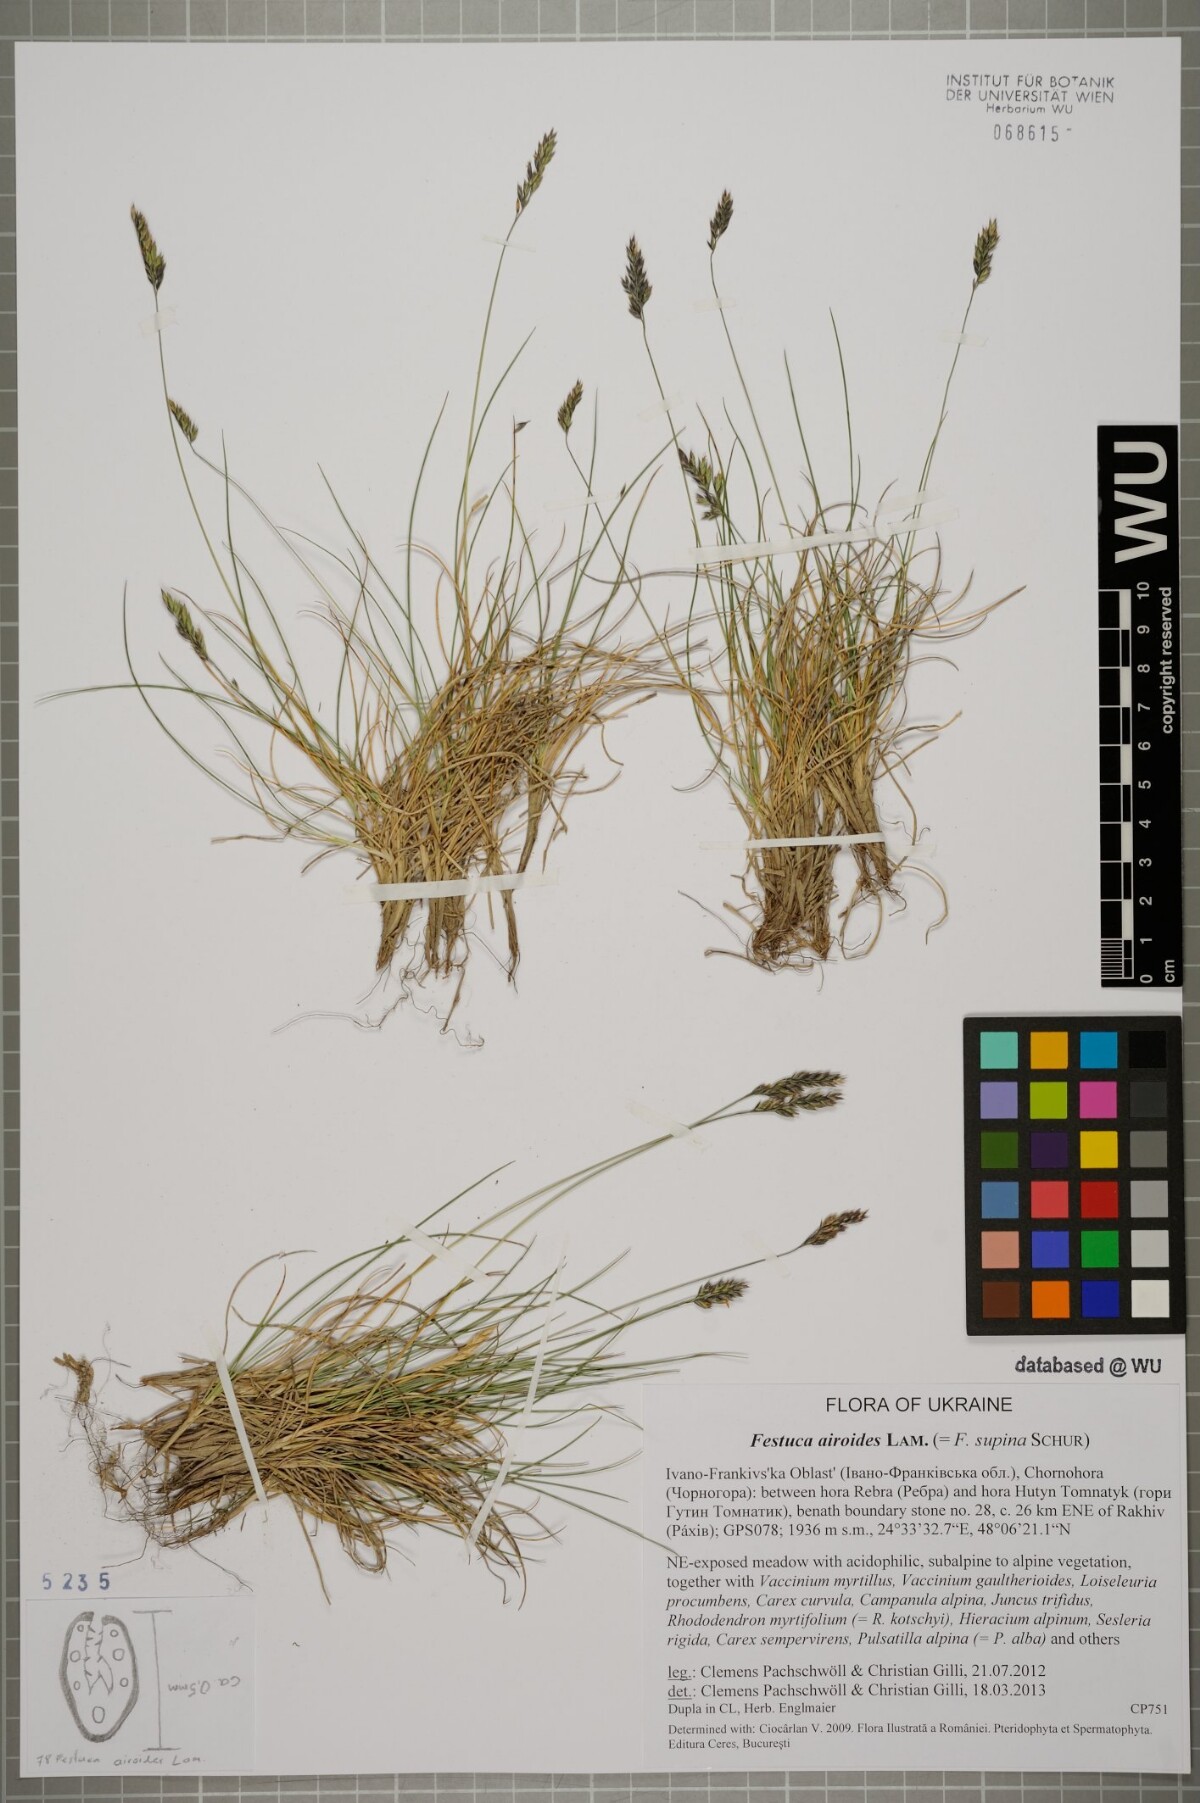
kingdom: Plantae
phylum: Tracheophyta
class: Liliopsida
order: Poales
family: Poaceae
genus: Festuca
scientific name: Festuca airoides
